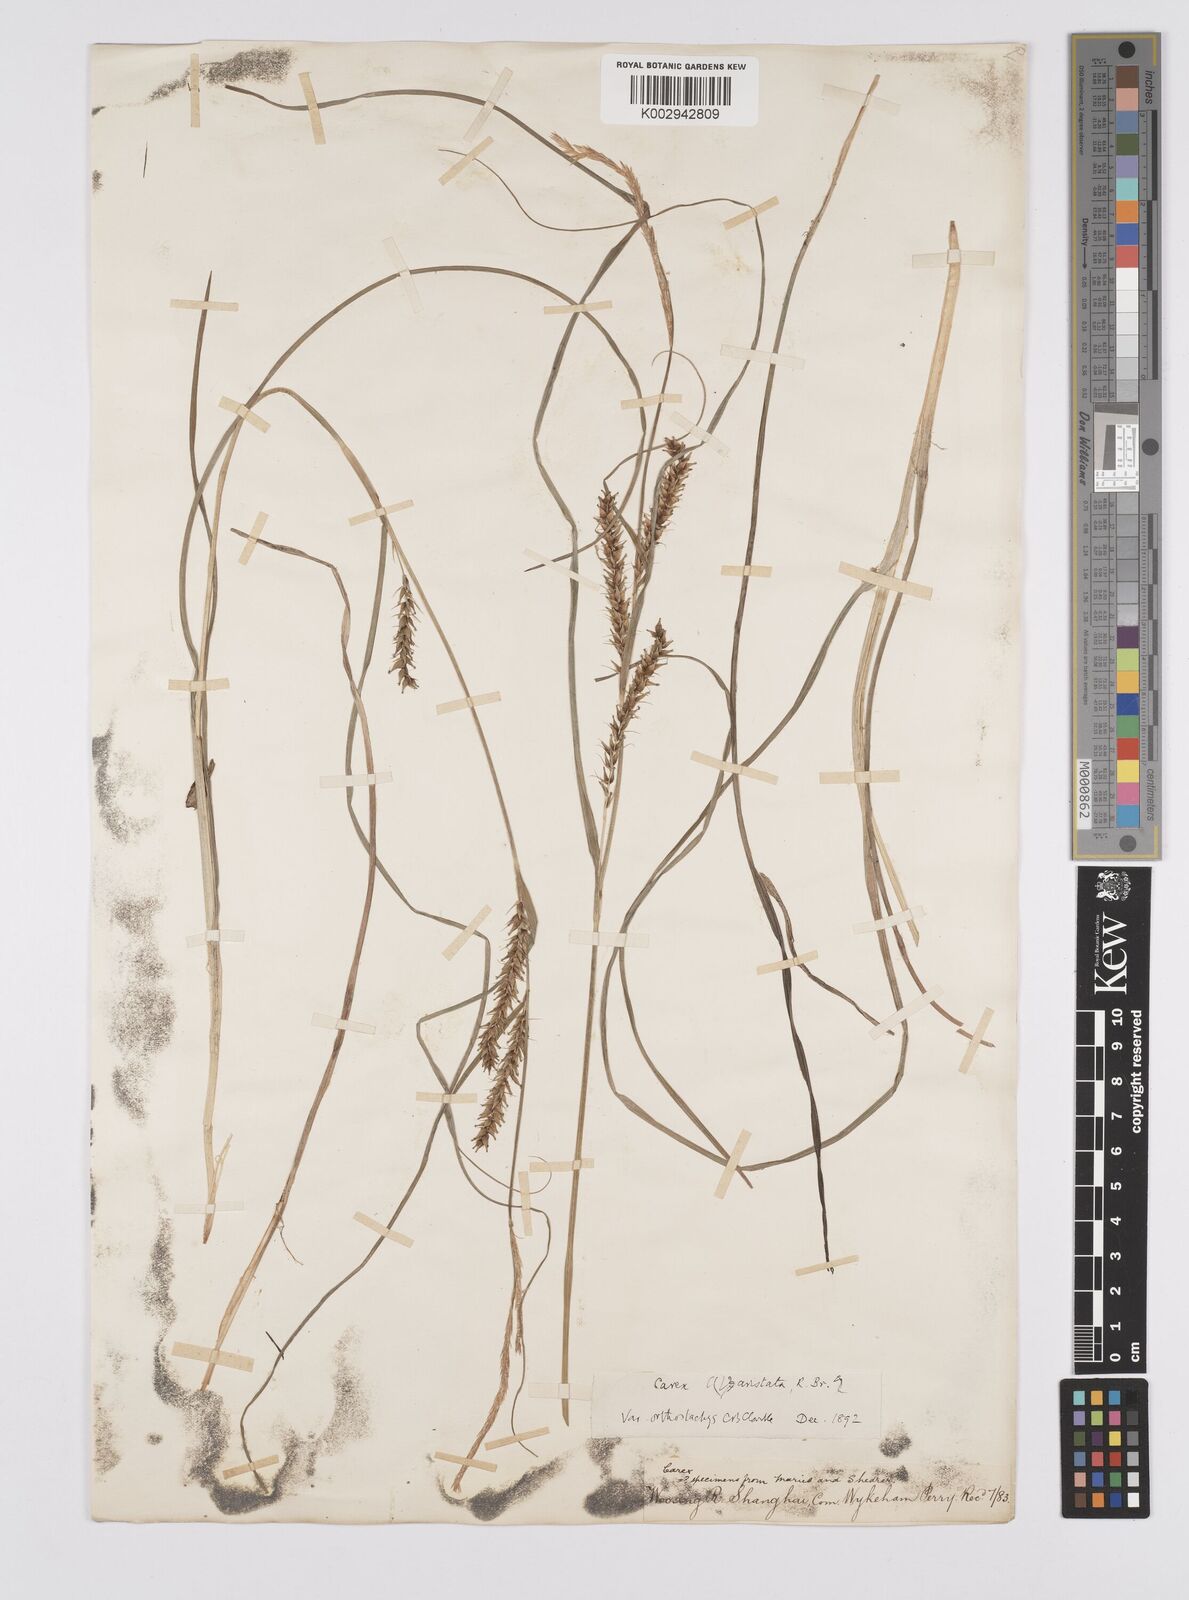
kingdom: Plantae
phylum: Tracheophyta
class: Liliopsida
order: Poales
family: Cyperaceae
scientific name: Cyperaceae
